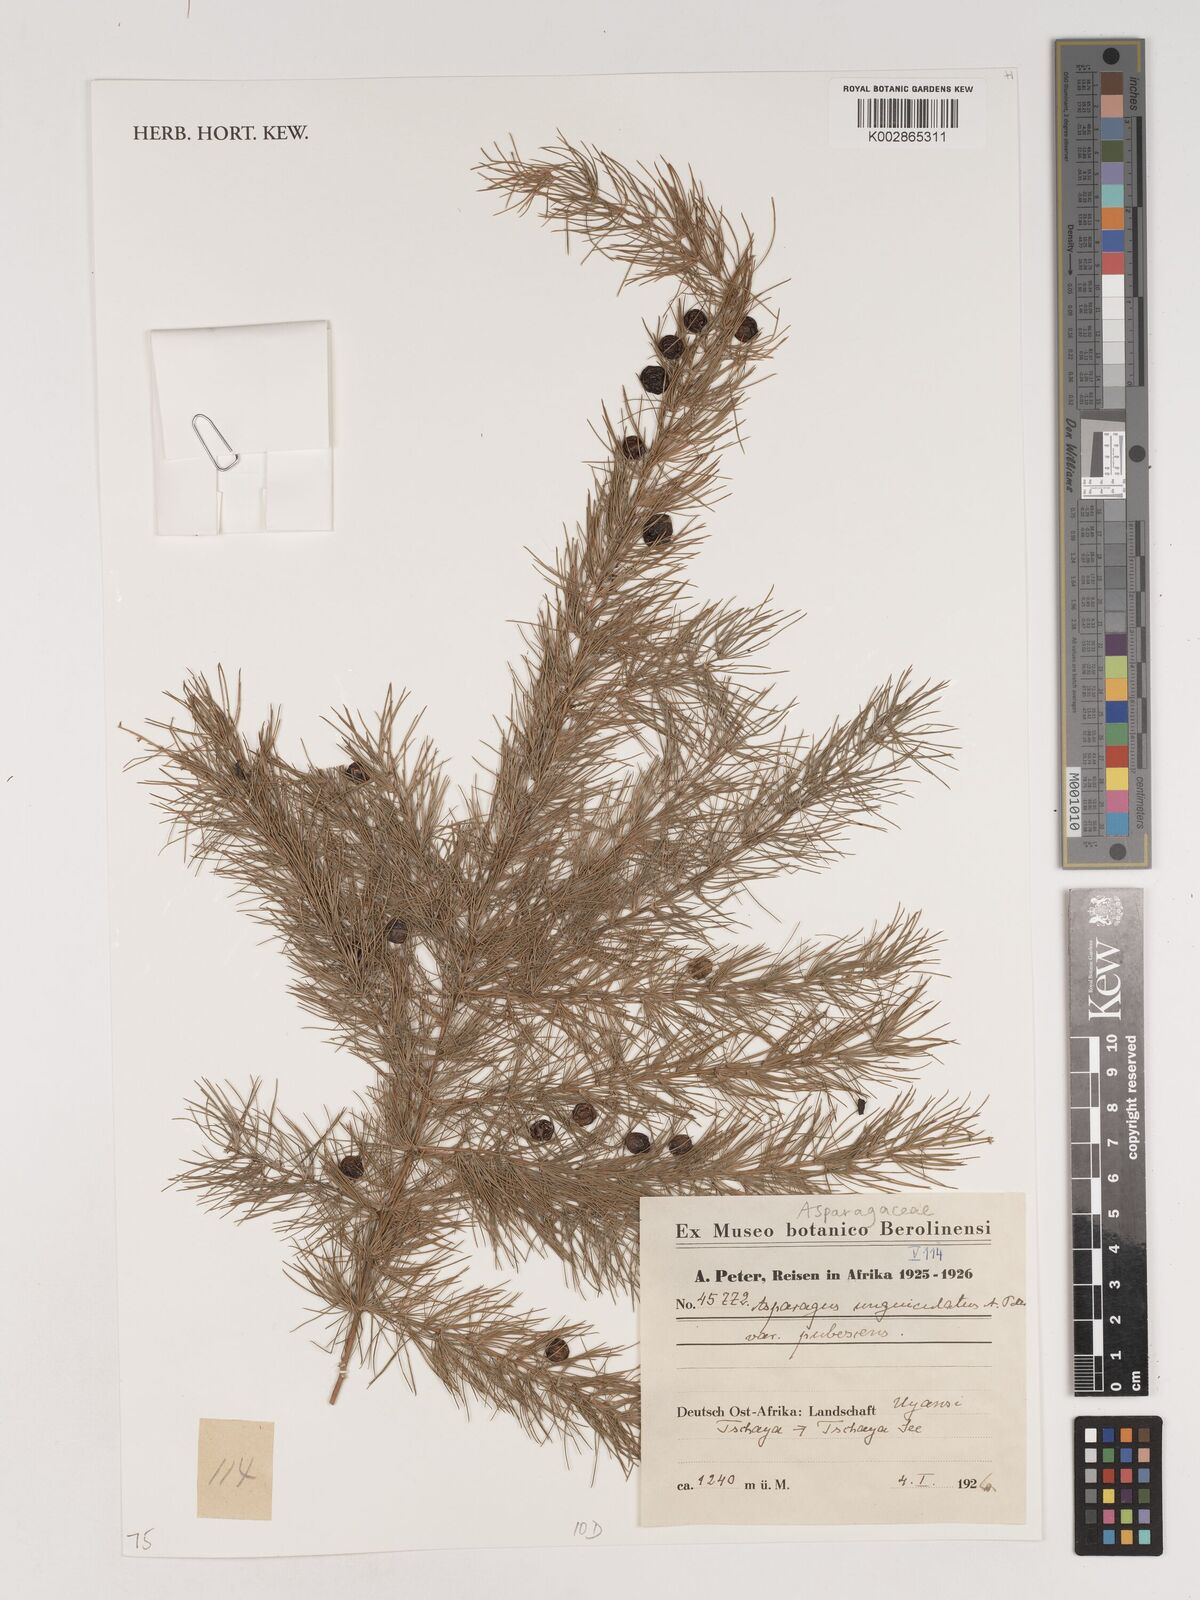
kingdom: Plantae
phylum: Tracheophyta
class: Liliopsida
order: Asparagales
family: Asparagaceae
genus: Asparagus
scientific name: Asparagus
